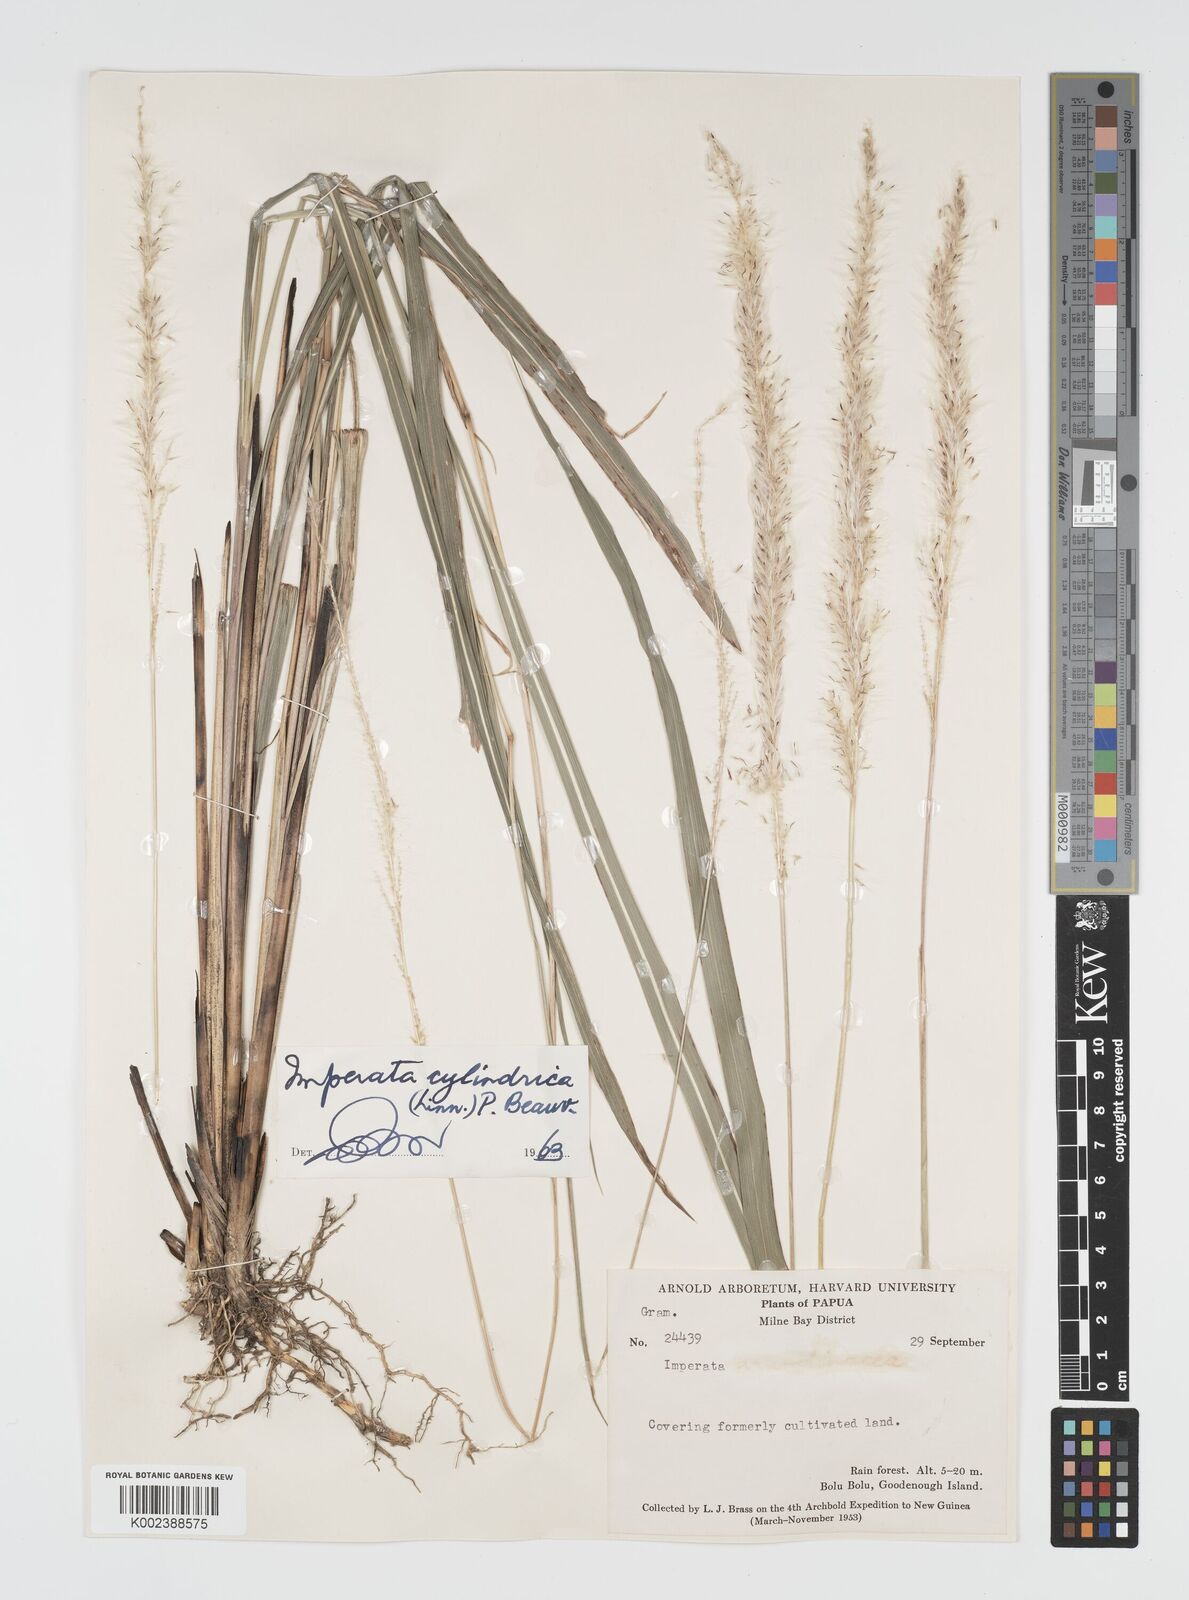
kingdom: Plantae
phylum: Tracheophyta
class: Liliopsida
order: Poales
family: Poaceae
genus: Imperata
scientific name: Imperata cylindrica
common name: Cogongrass
